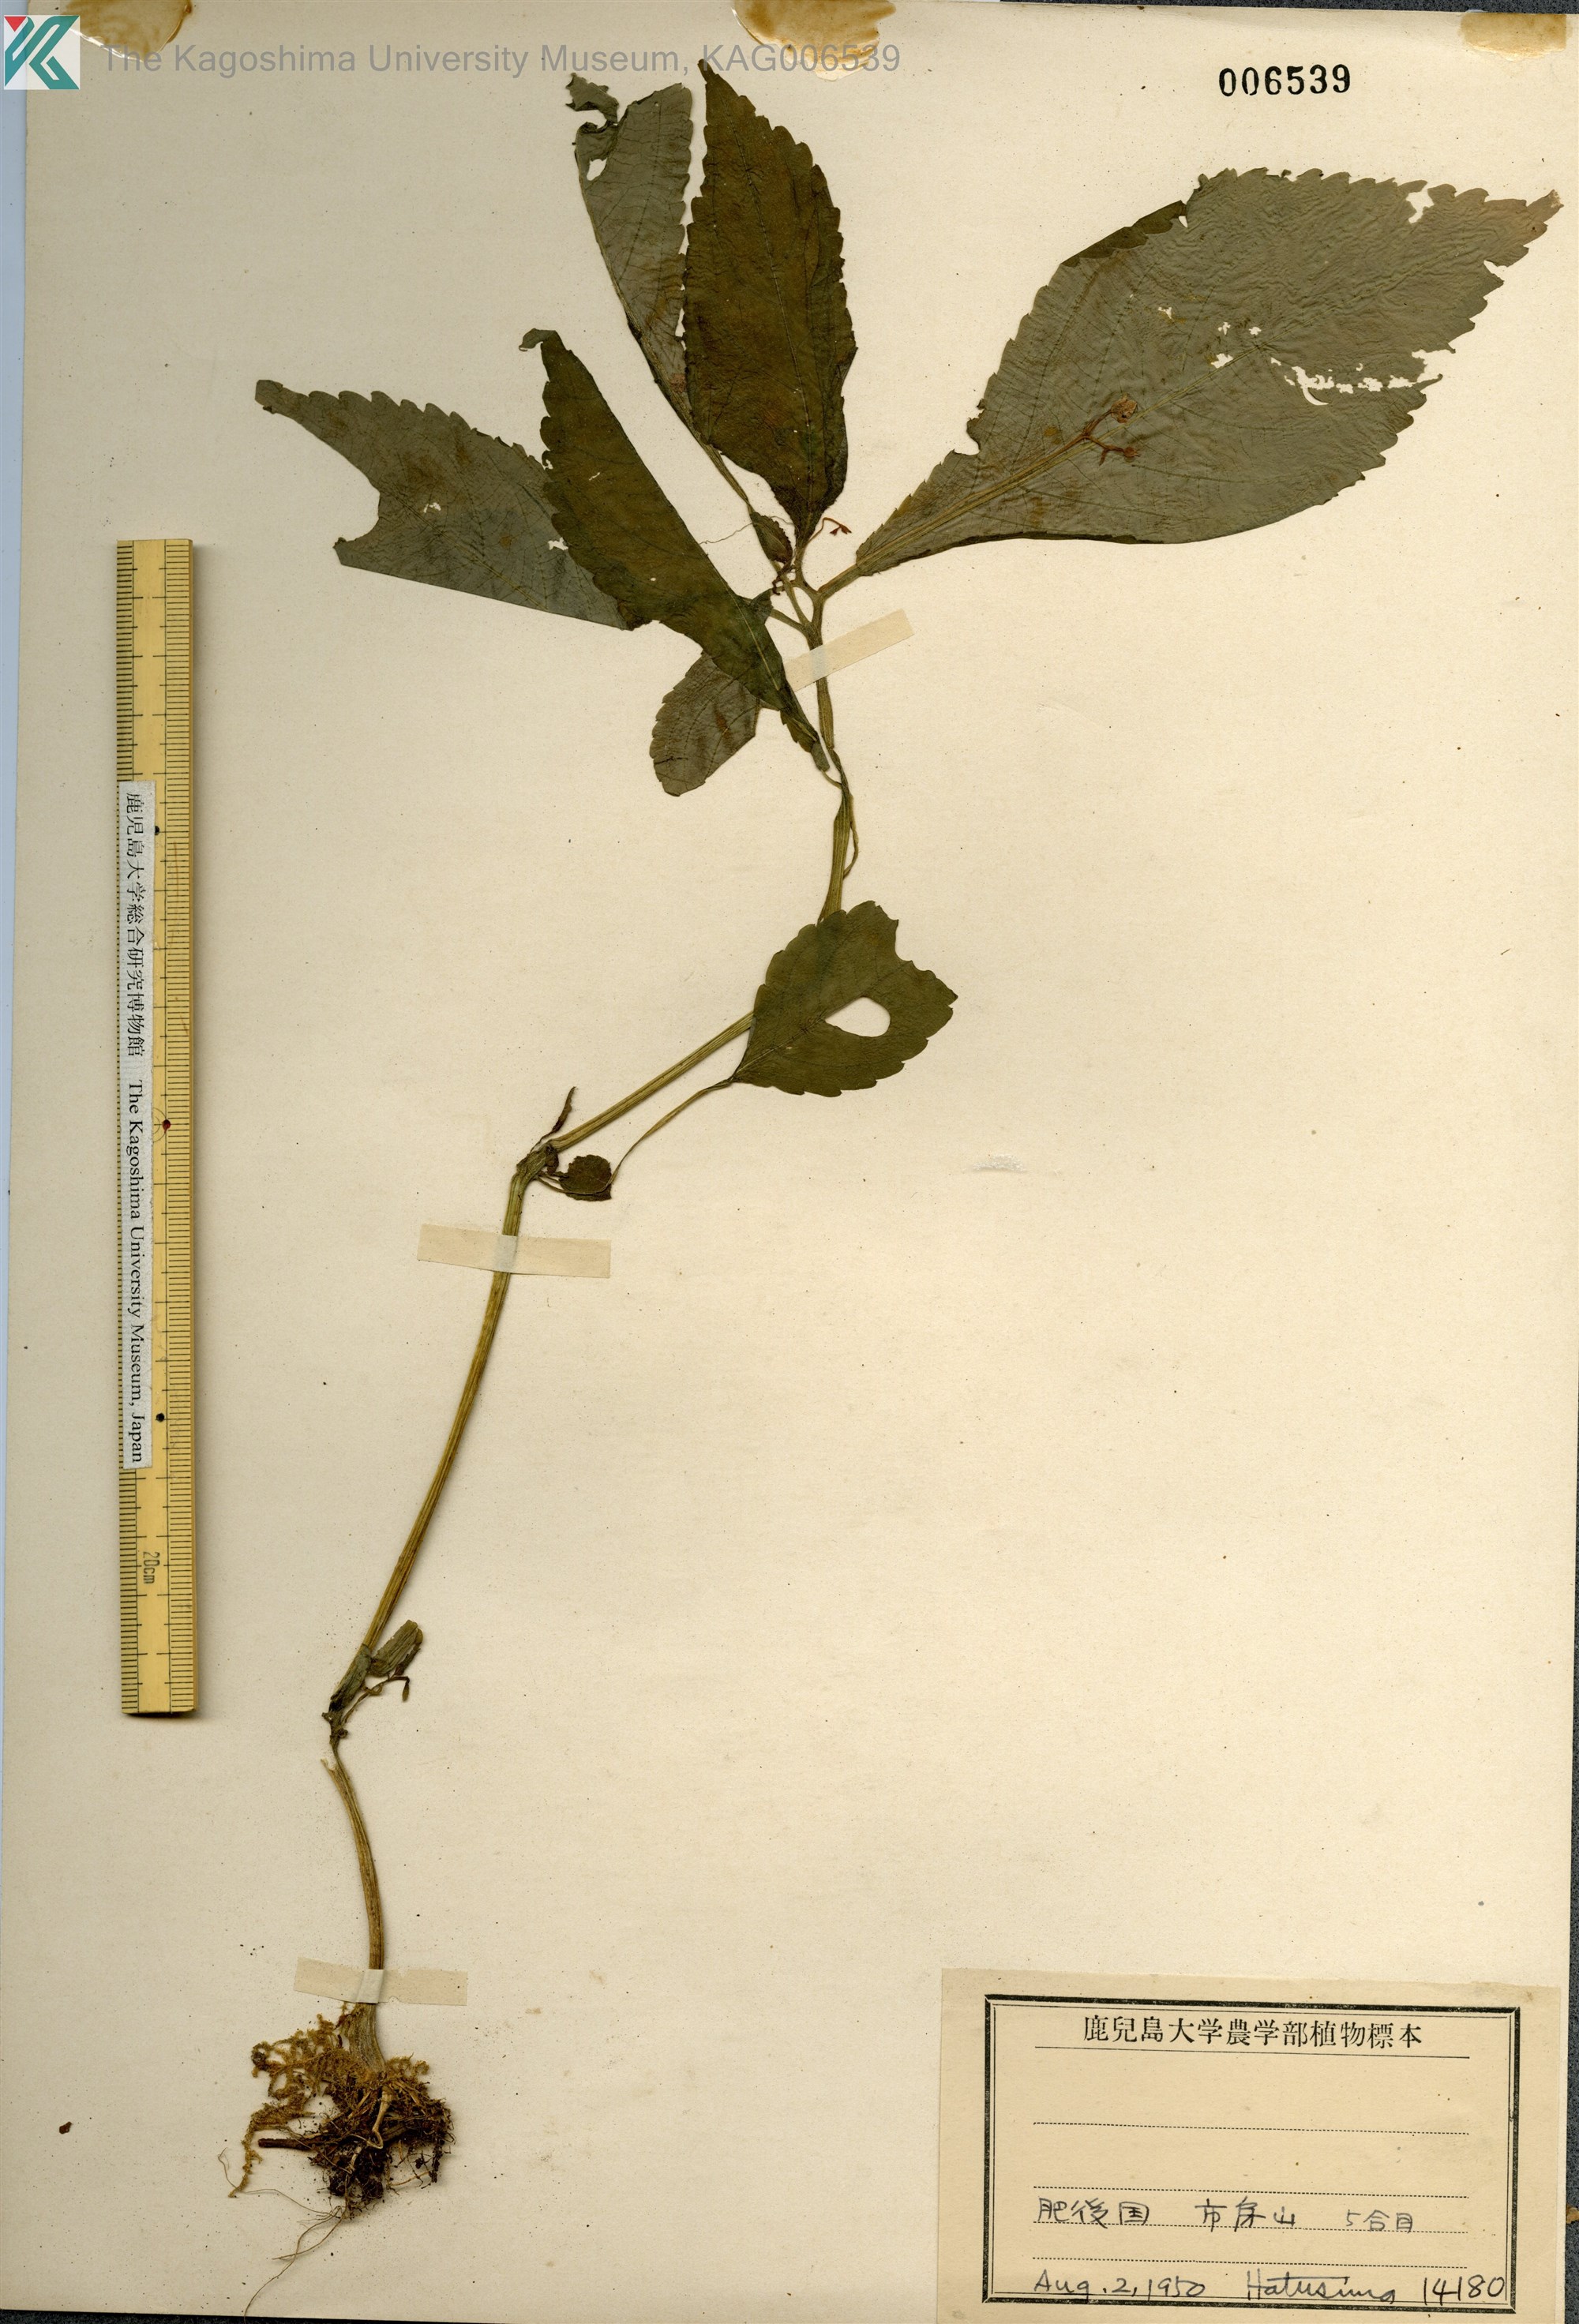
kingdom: Plantae
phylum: Tracheophyta
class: Magnoliopsida
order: Ericales
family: Balsaminaceae
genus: Impatiens
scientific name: Impatiens hypophylla
